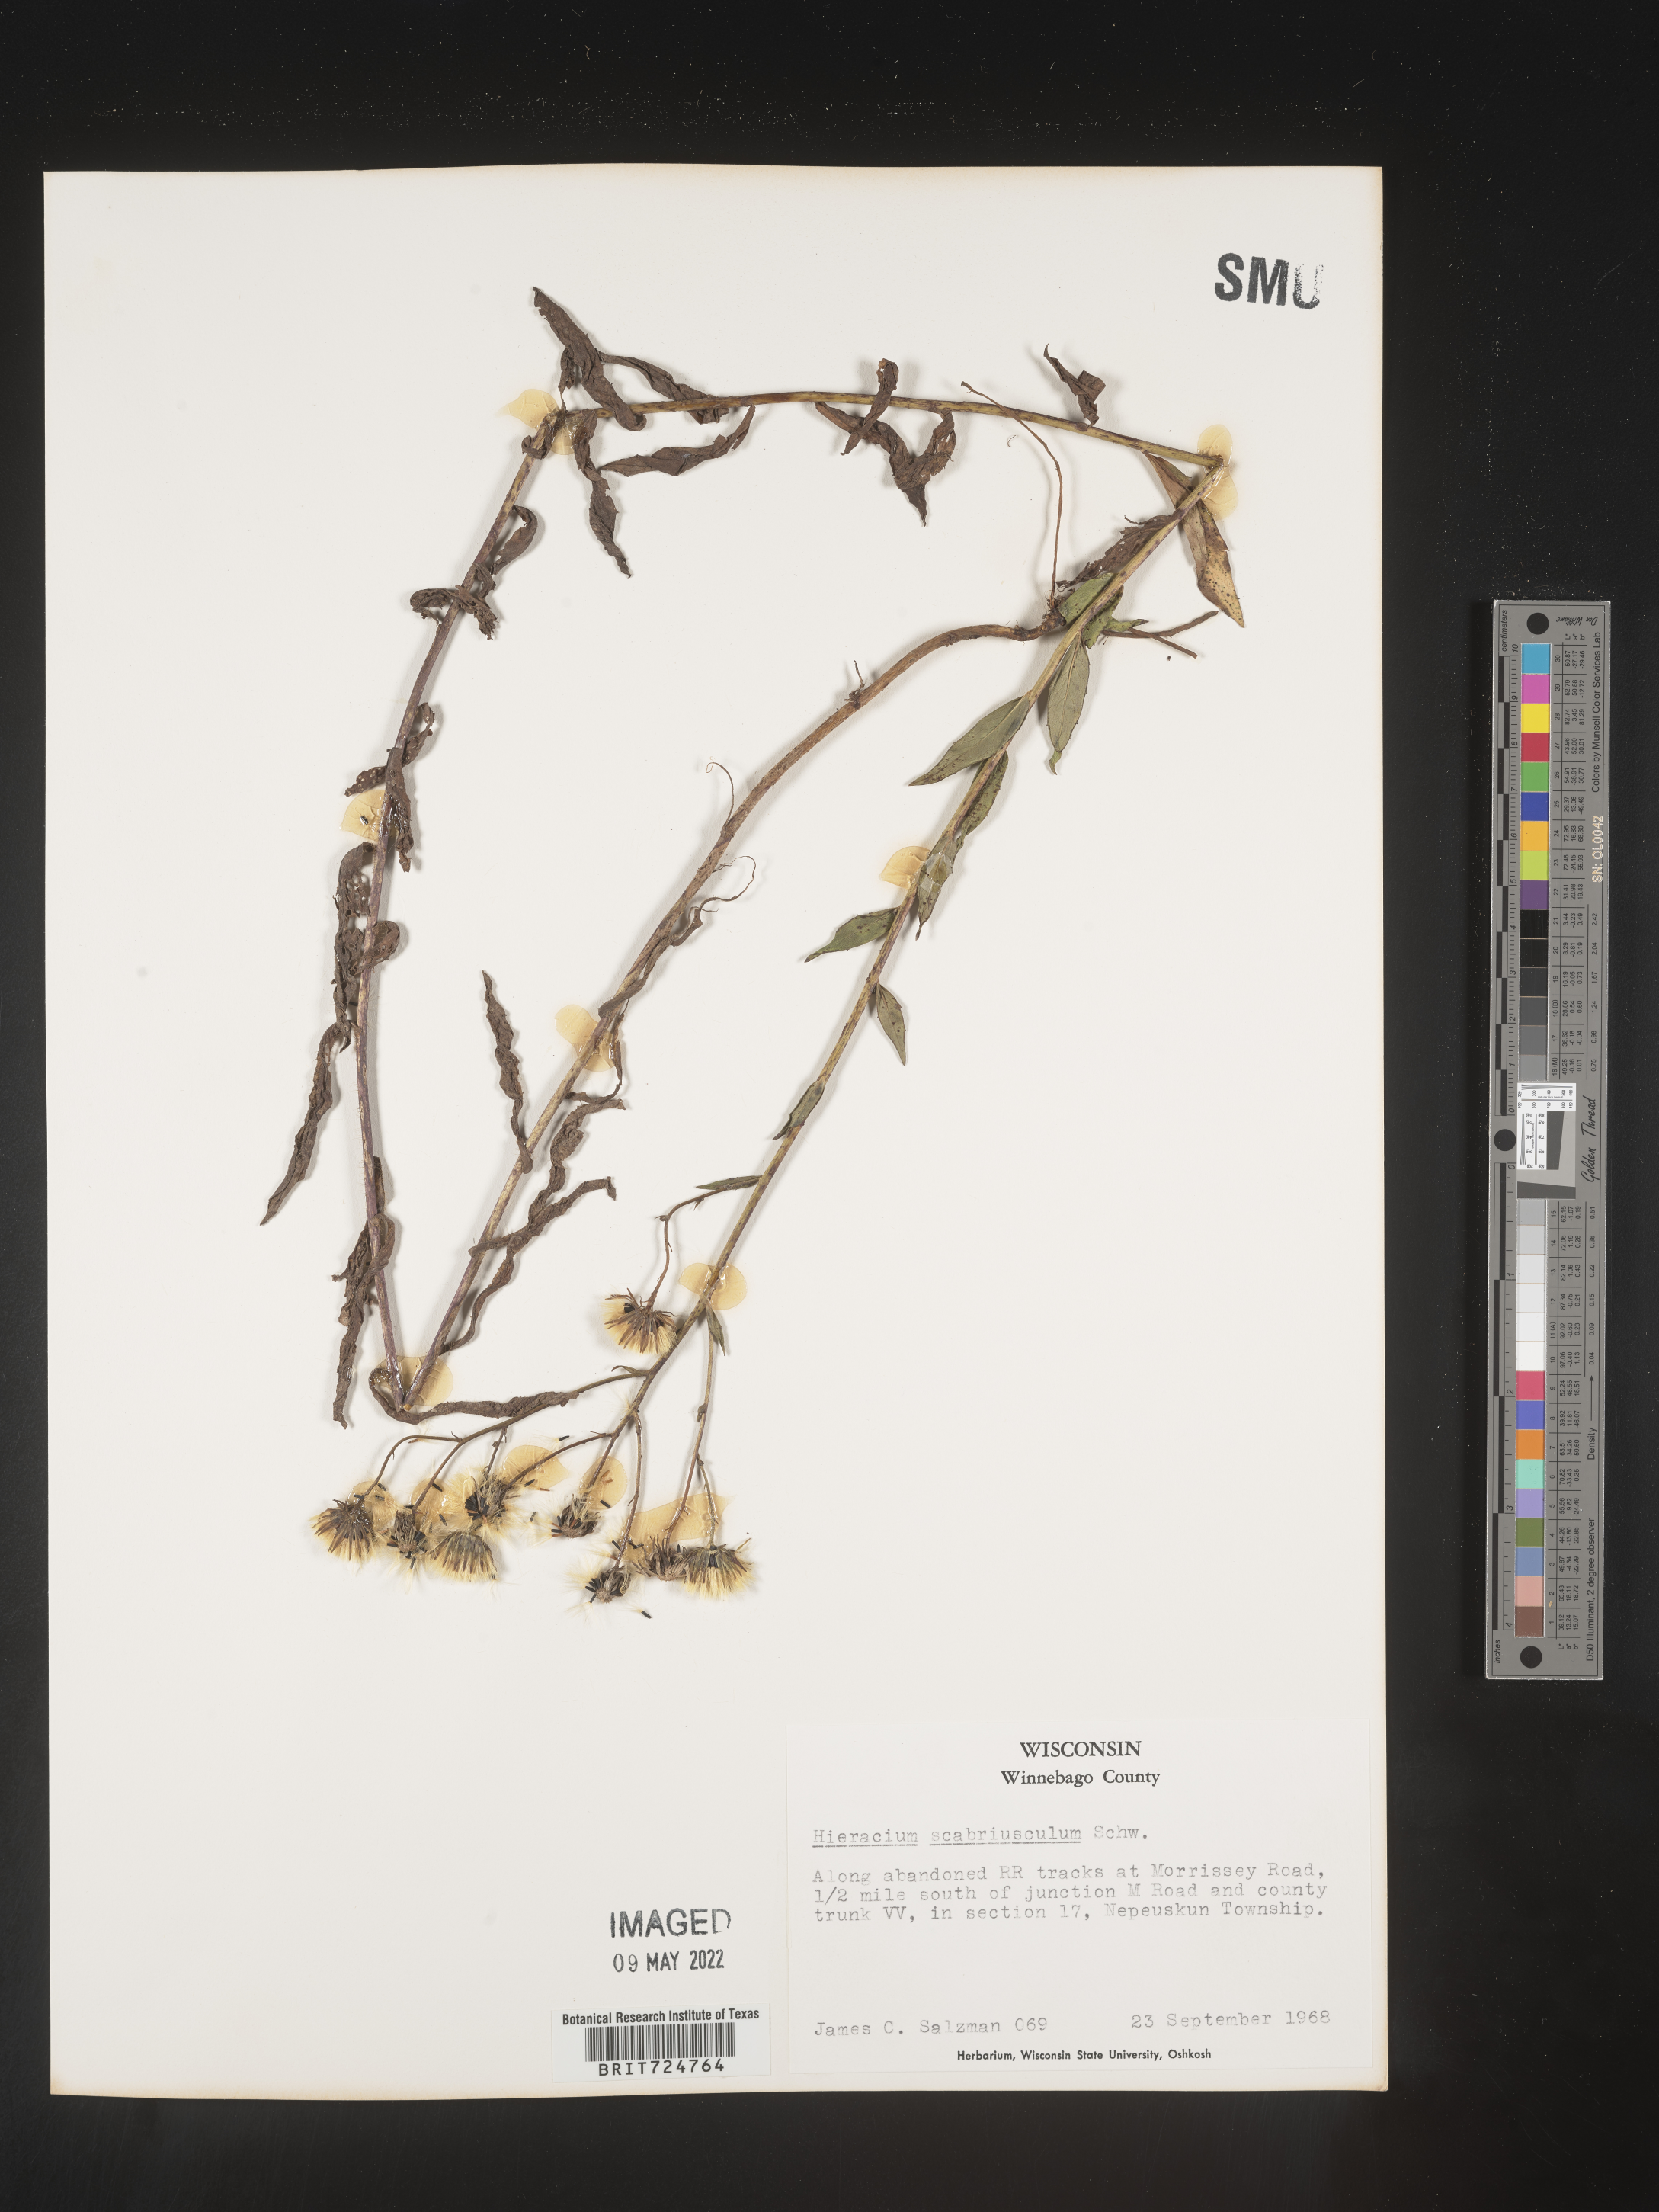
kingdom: Plantae
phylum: Tracheophyta
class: Magnoliopsida
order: Asterales
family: Asteraceae
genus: Hieracium
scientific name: Hieracium
